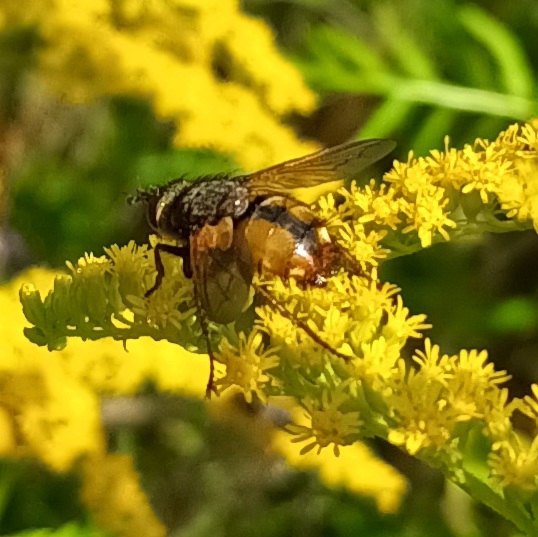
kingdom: Animalia
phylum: Arthropoda
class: Insecta
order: Diptera
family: Tachinidae
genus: Tachina
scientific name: Tachina fera
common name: Mellemfluen oskar
